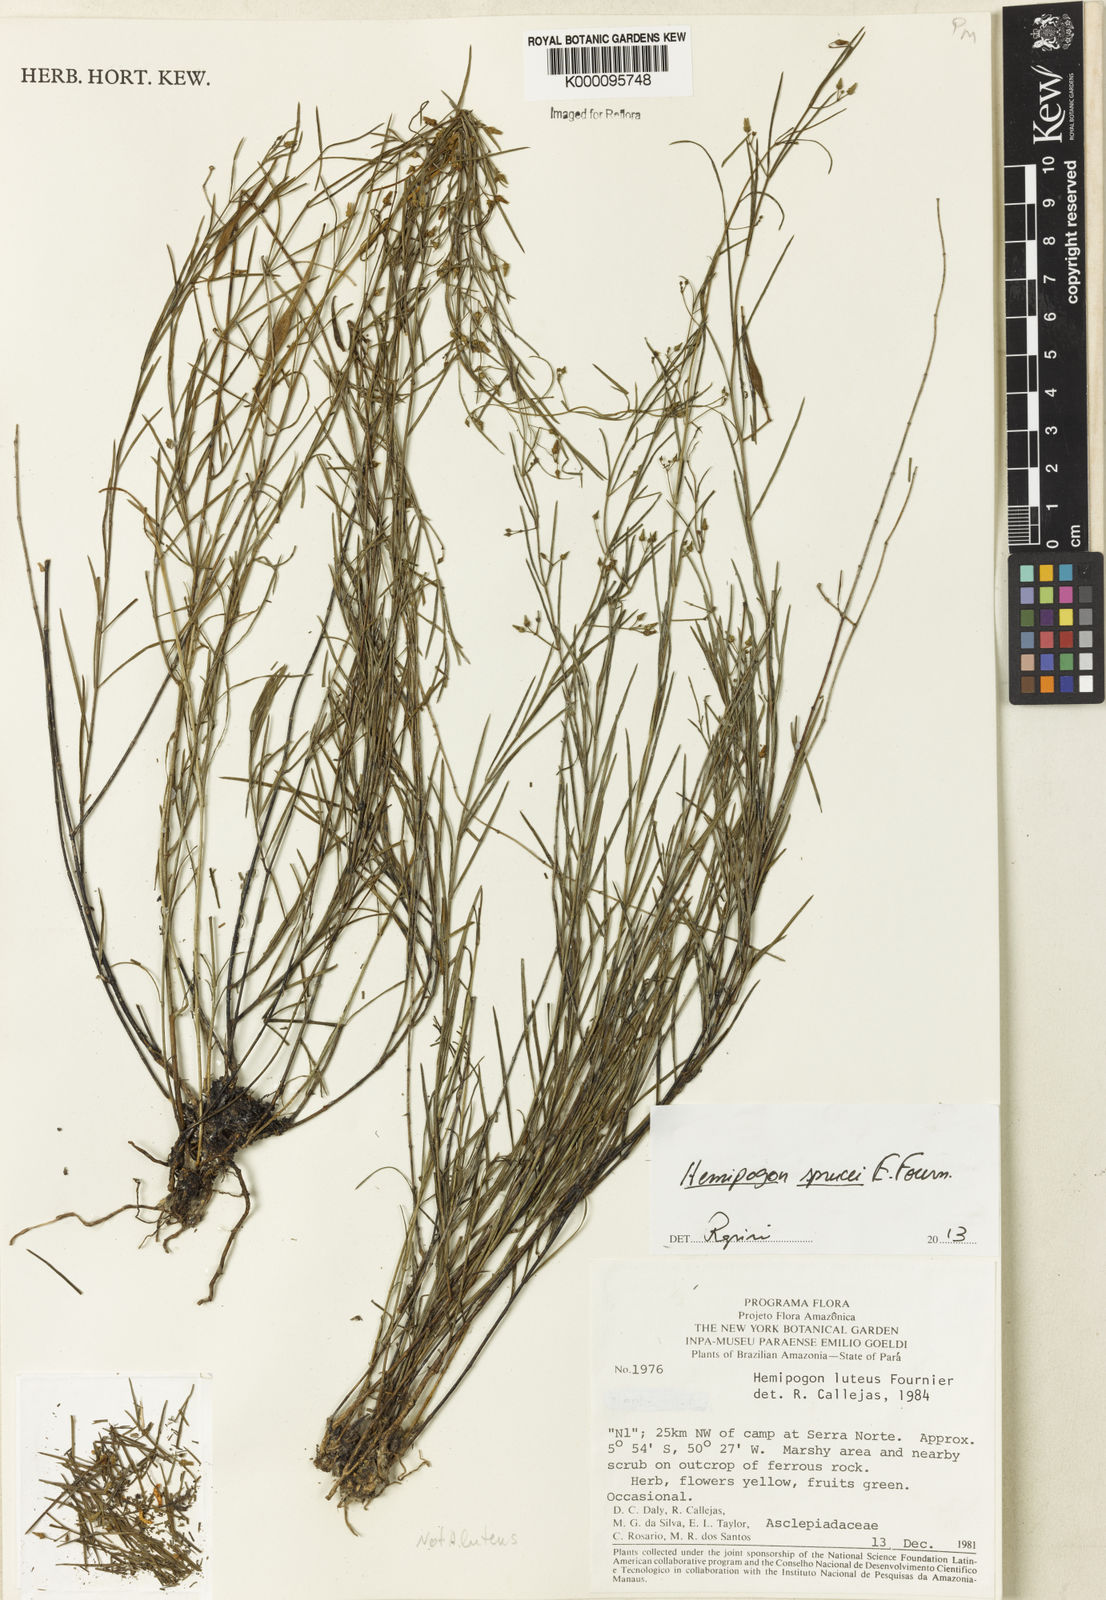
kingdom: Plantae
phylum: Tracheophyta
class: Magnoliopsida
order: Gentianales
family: Apocynaceae
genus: Hemipogon
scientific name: Hemipogon sprucei
